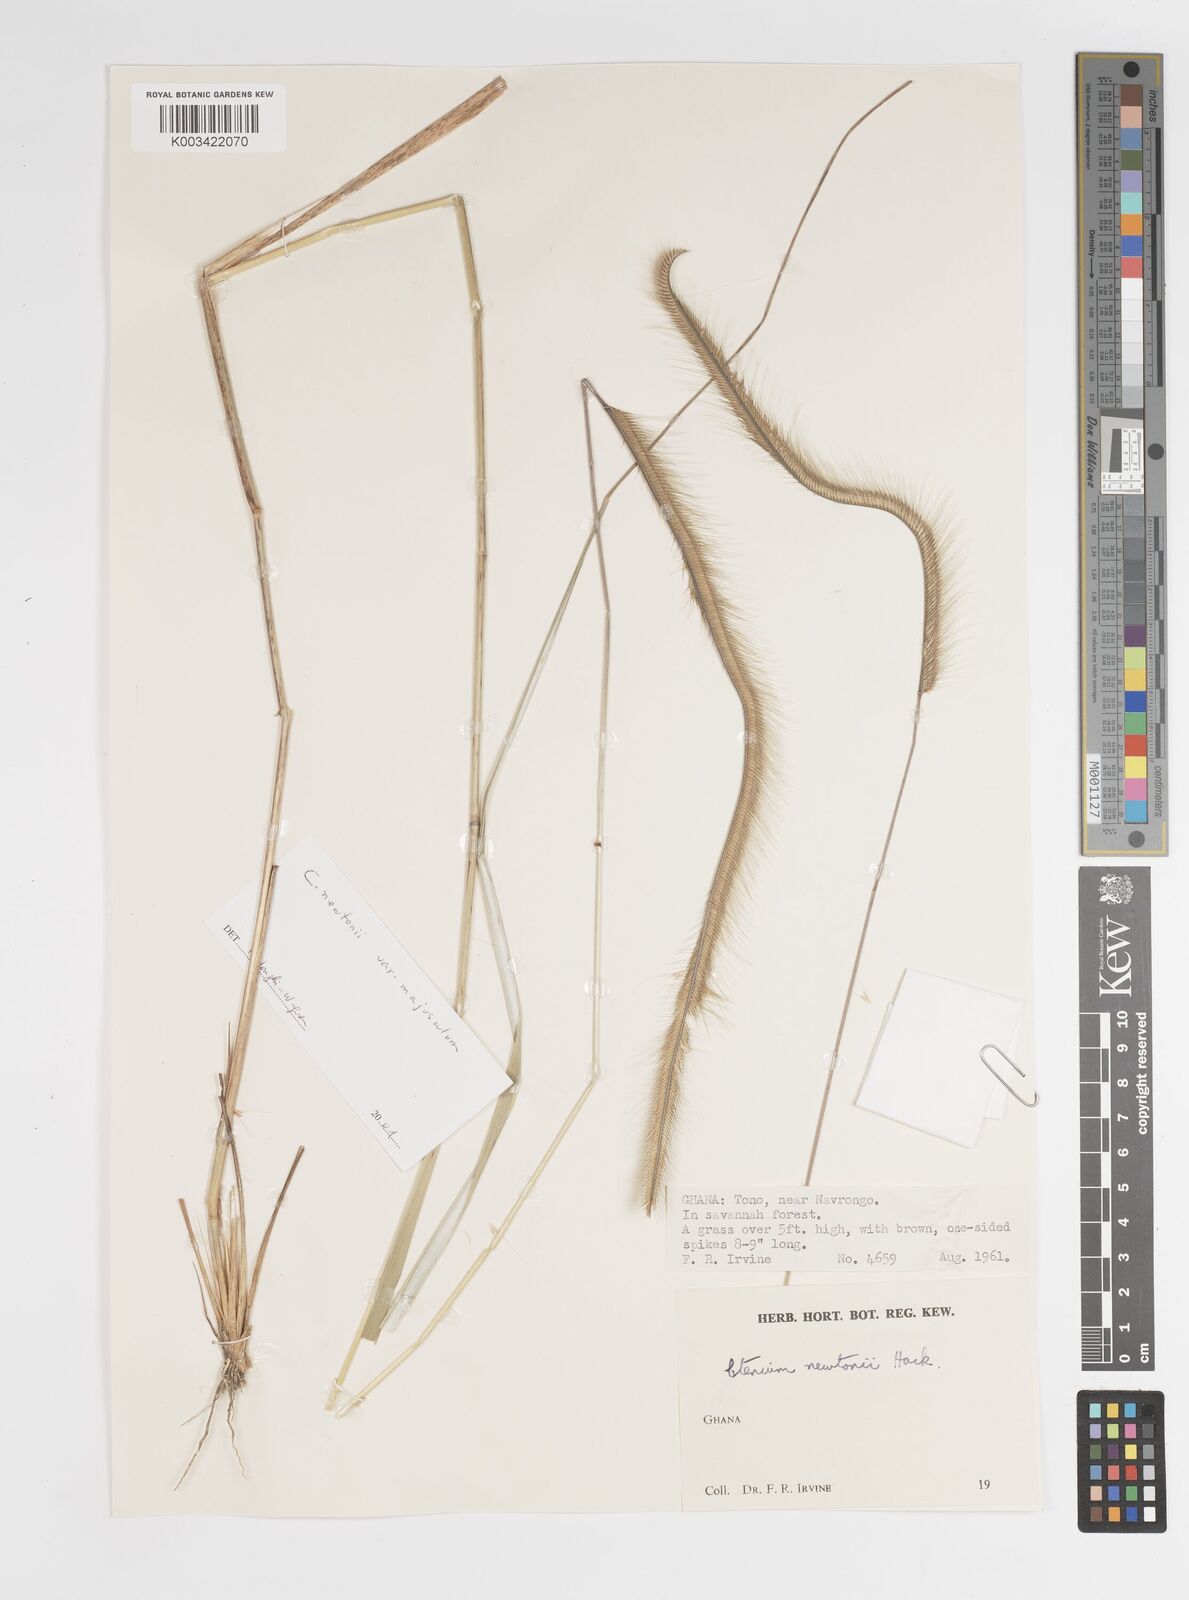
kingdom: Plantae
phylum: Tracheophyta
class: Liliopsida
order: Poales
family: Poaceae
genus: Ctenium
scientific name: Ctenium newtonii
